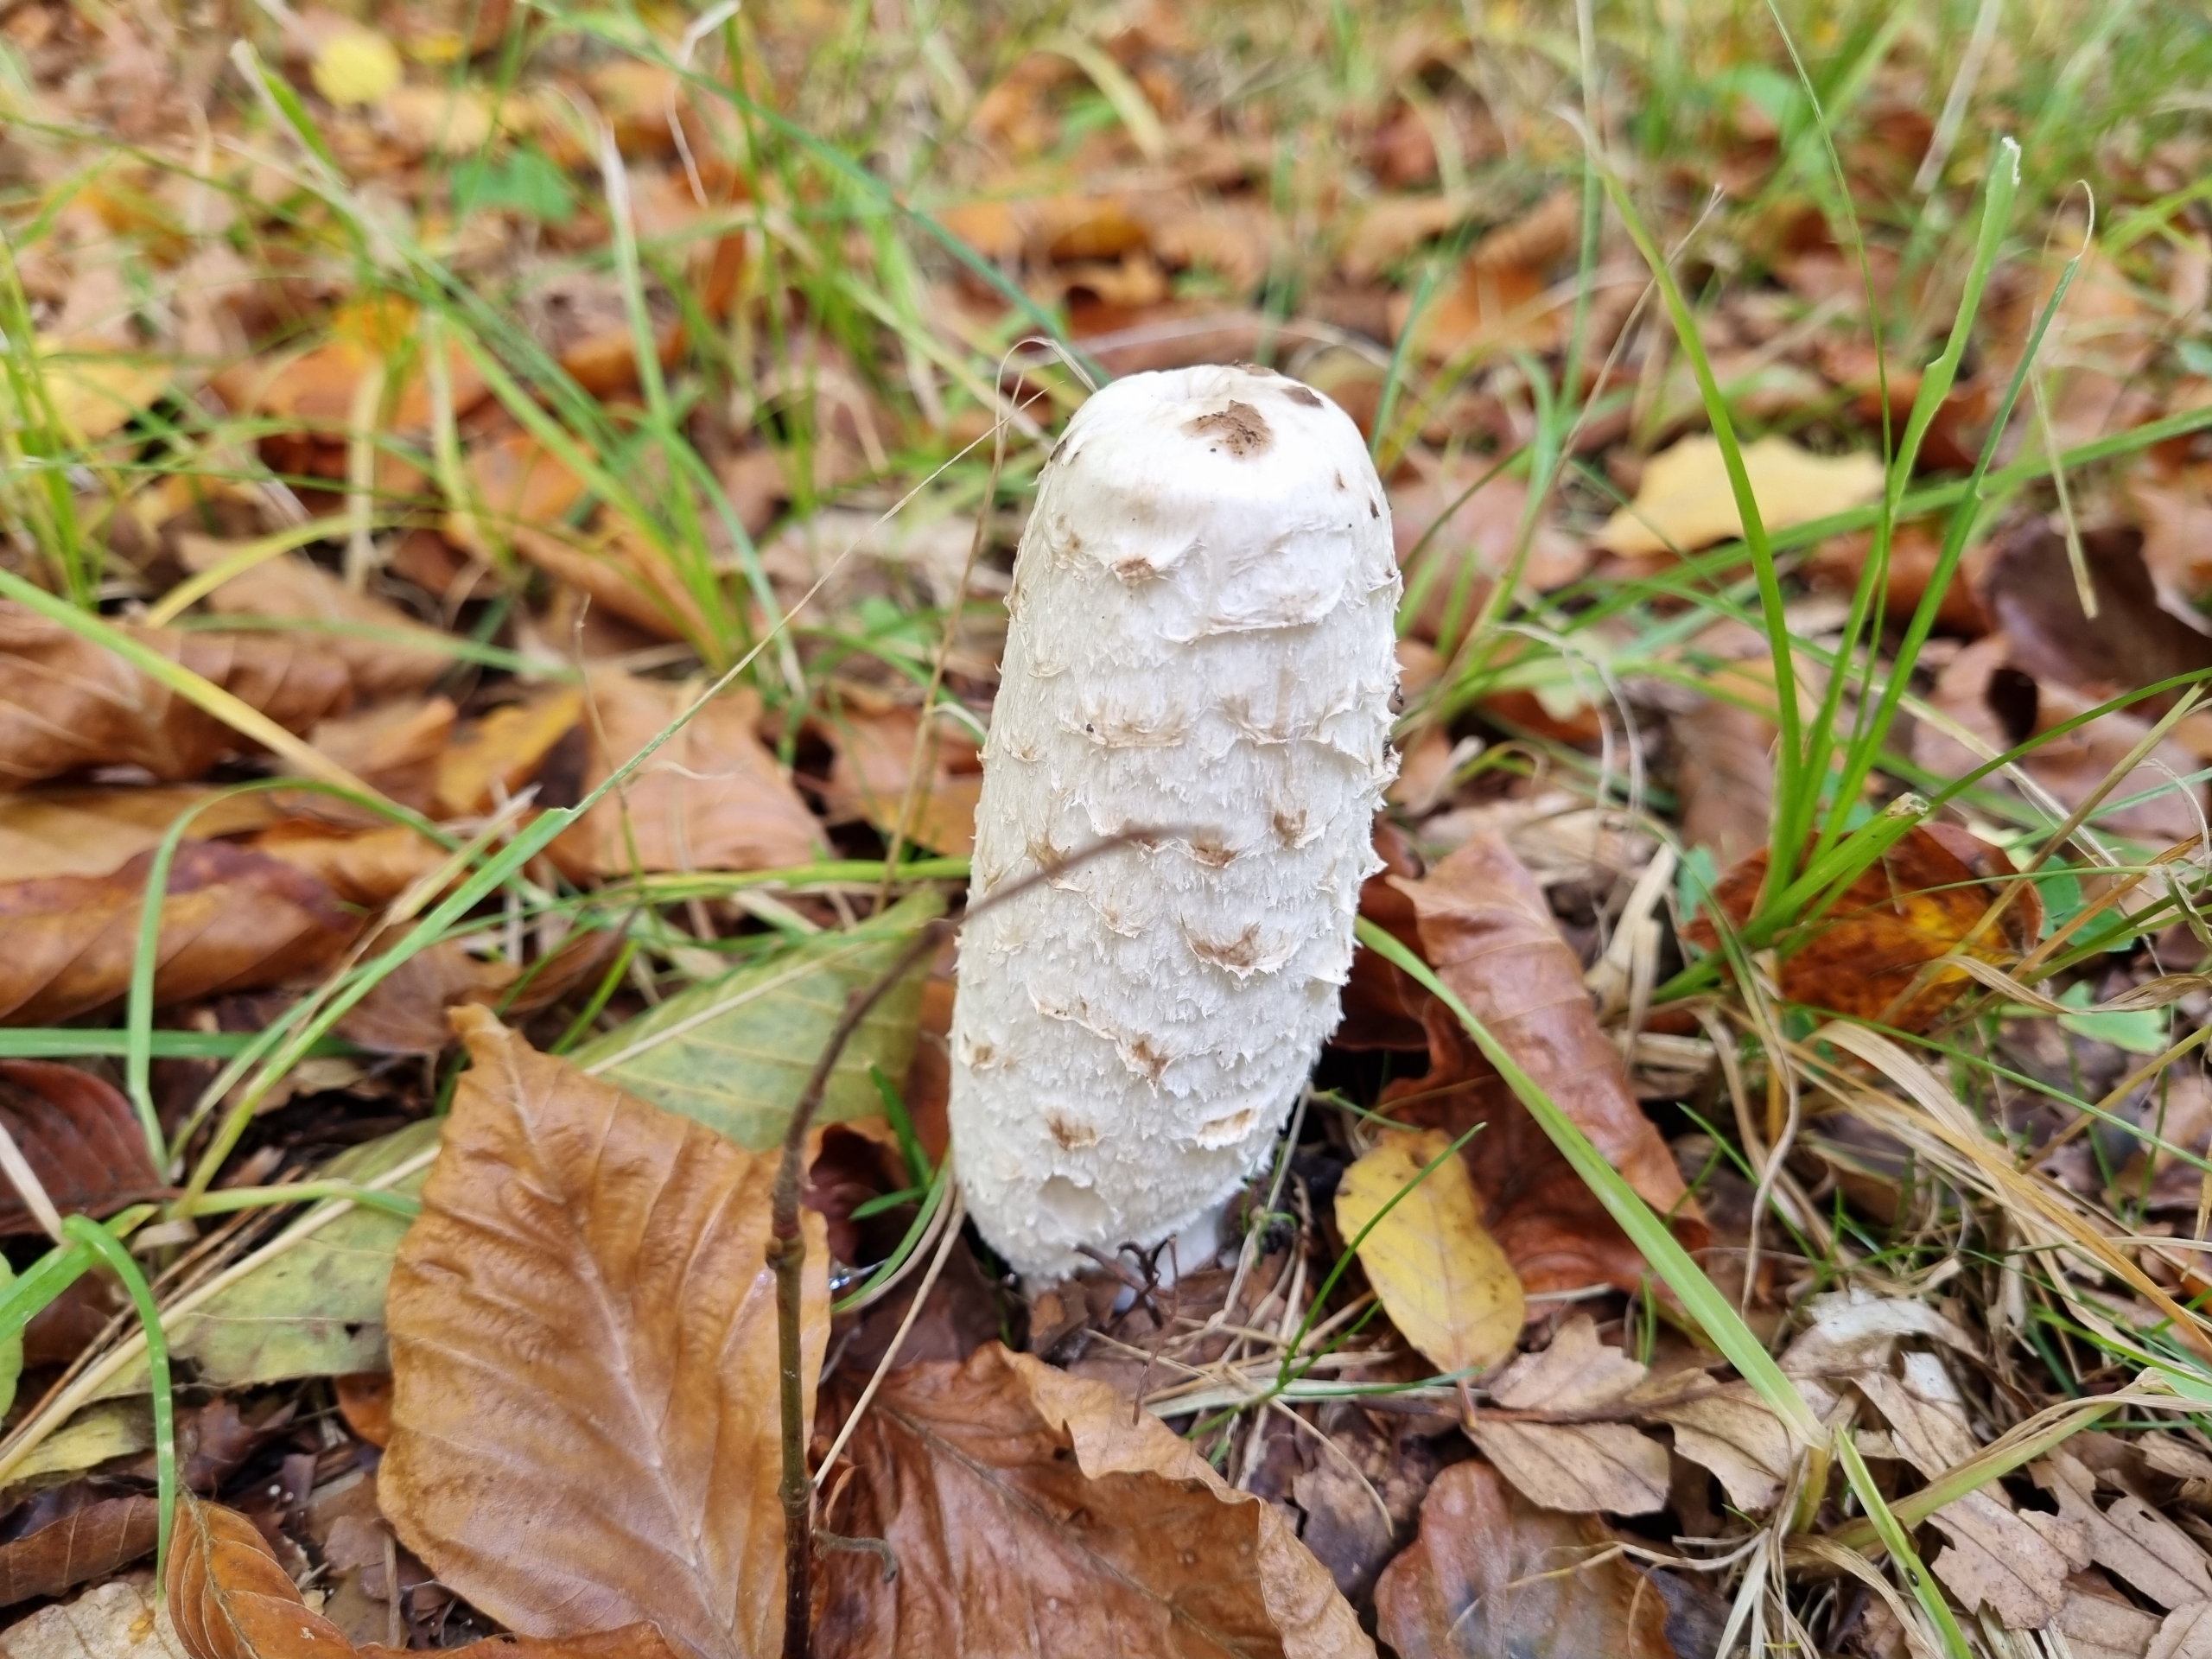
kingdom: Fungi
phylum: Basidiomycota
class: Agaricomycetes
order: Agaricales
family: Agaricaceae
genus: Coprinus
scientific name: Coprinus comatus
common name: Stor parykhat
